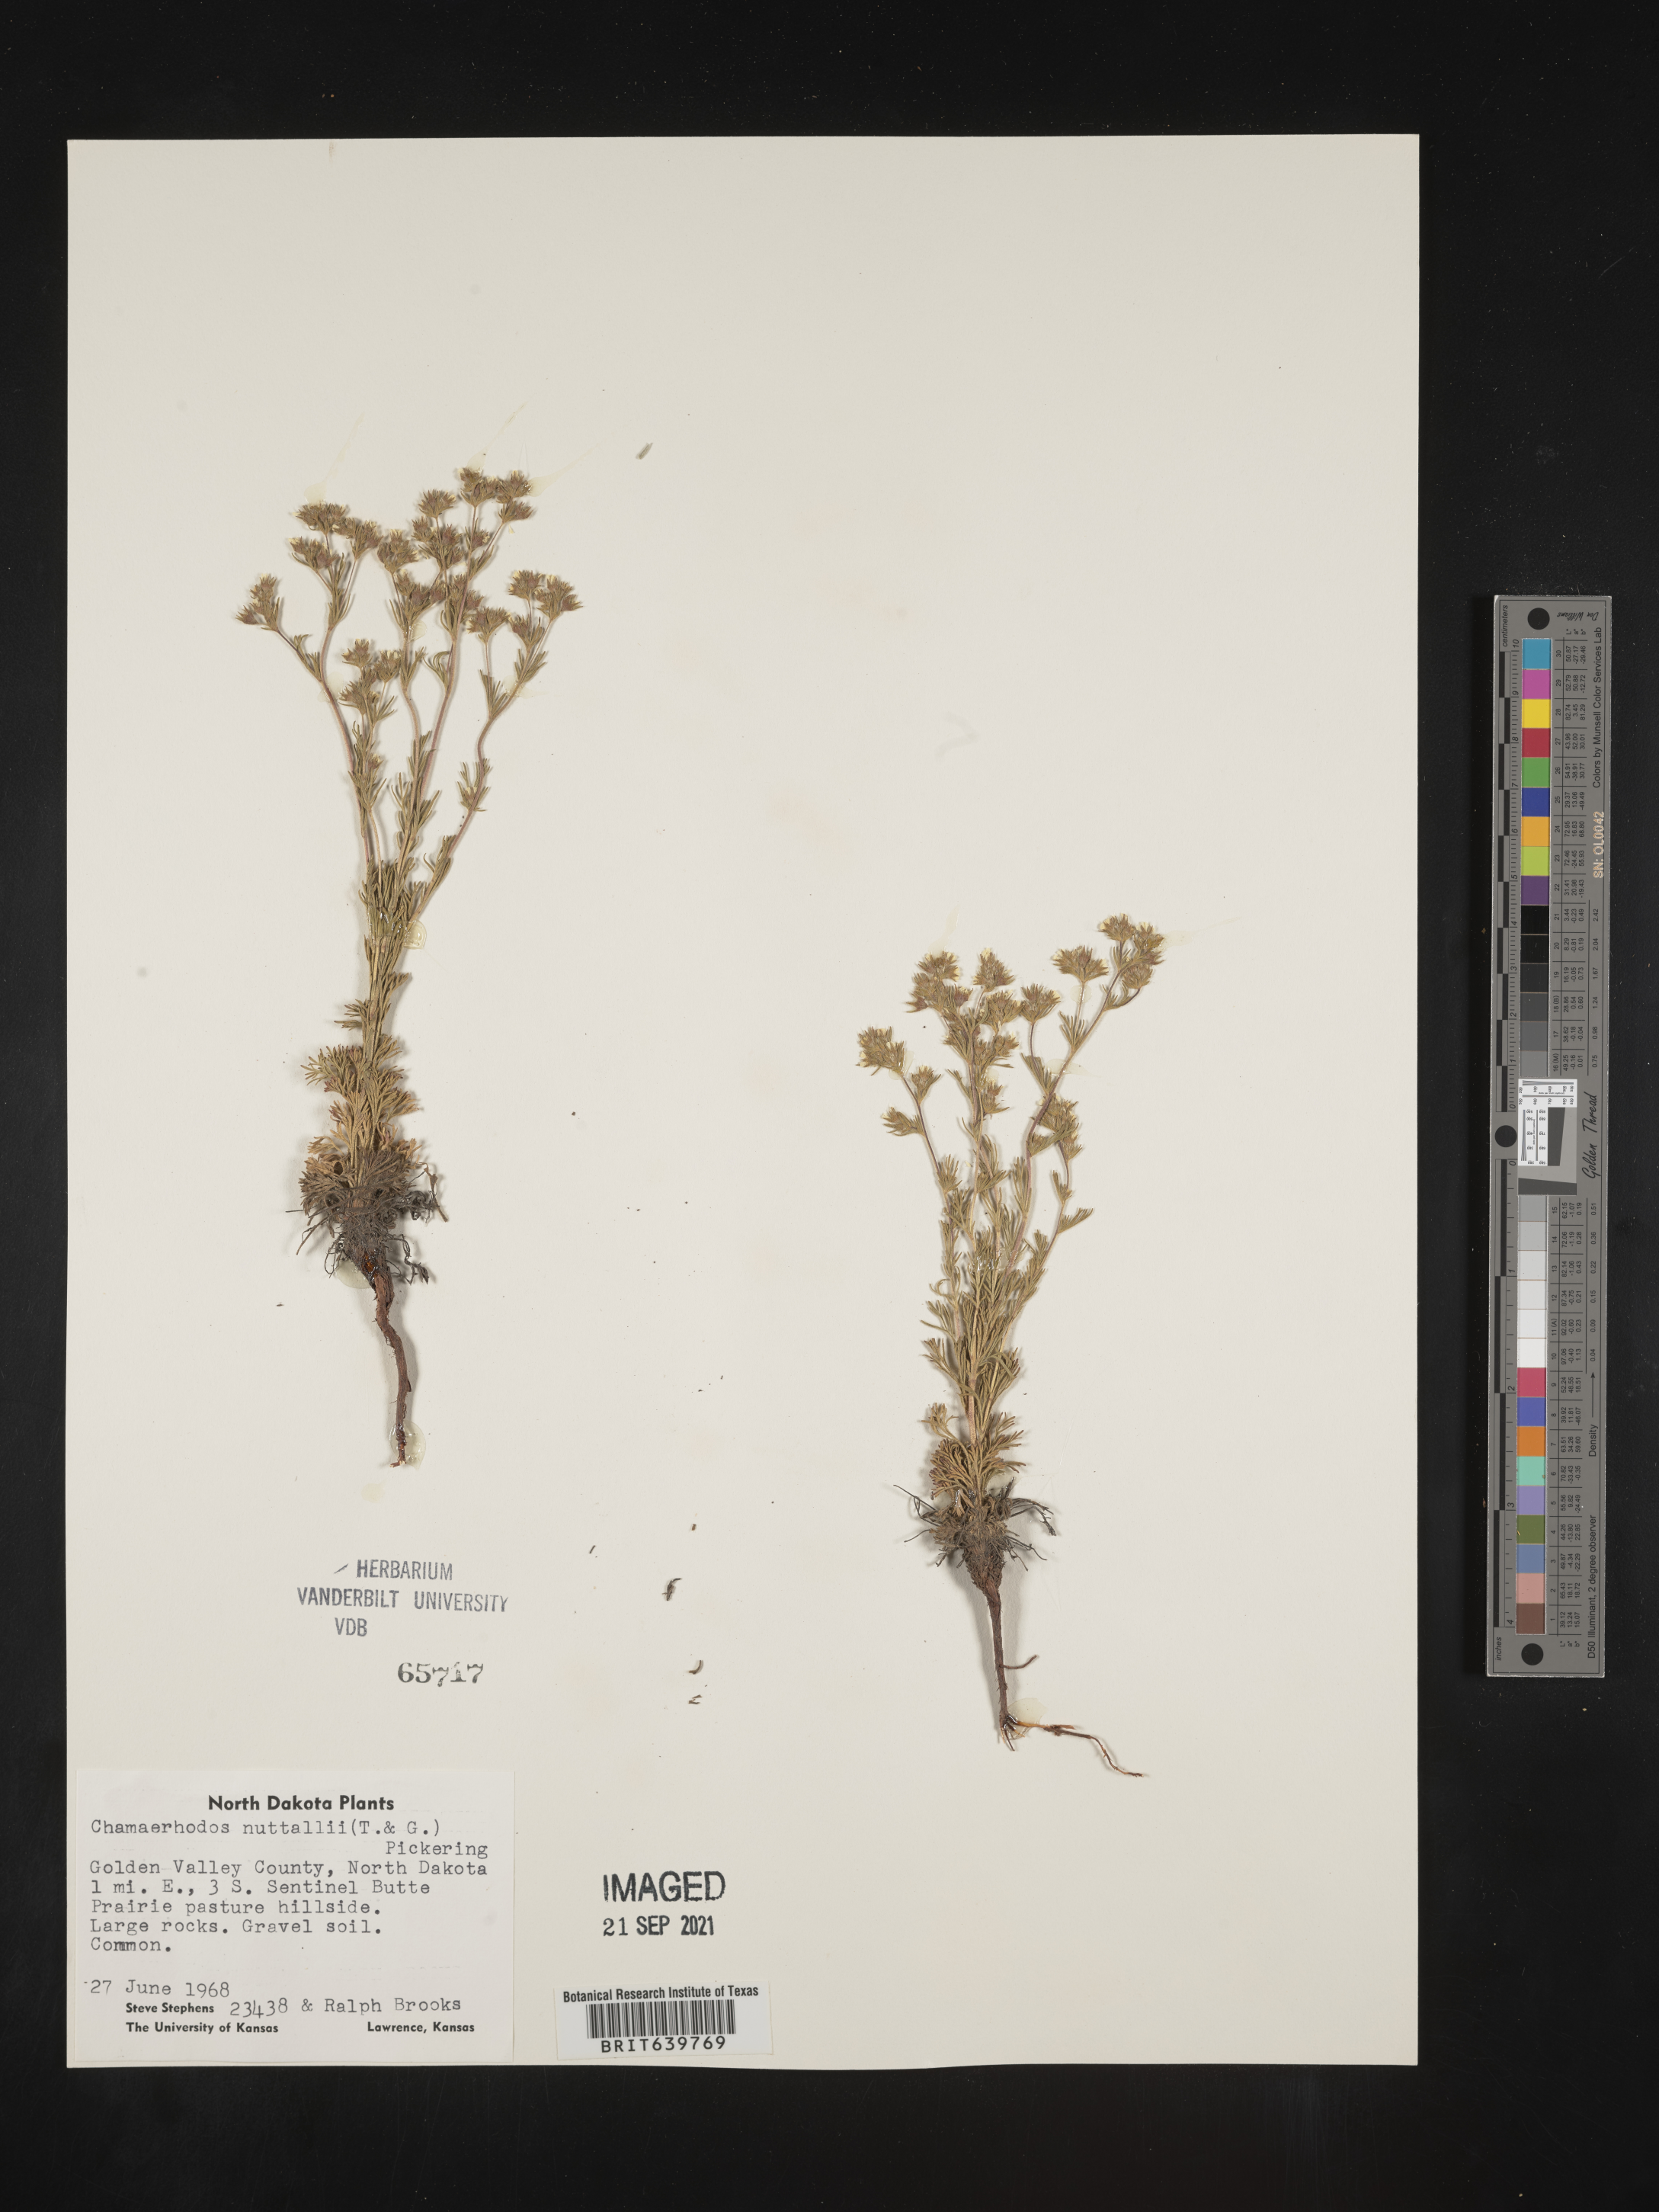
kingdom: Plantae
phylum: Tracheophyta
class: Magnoliopsida
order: Rosales
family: Rosaceae
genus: Chamaerhodos
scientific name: Chamaerhodos erecta
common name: American chamaerhodos
